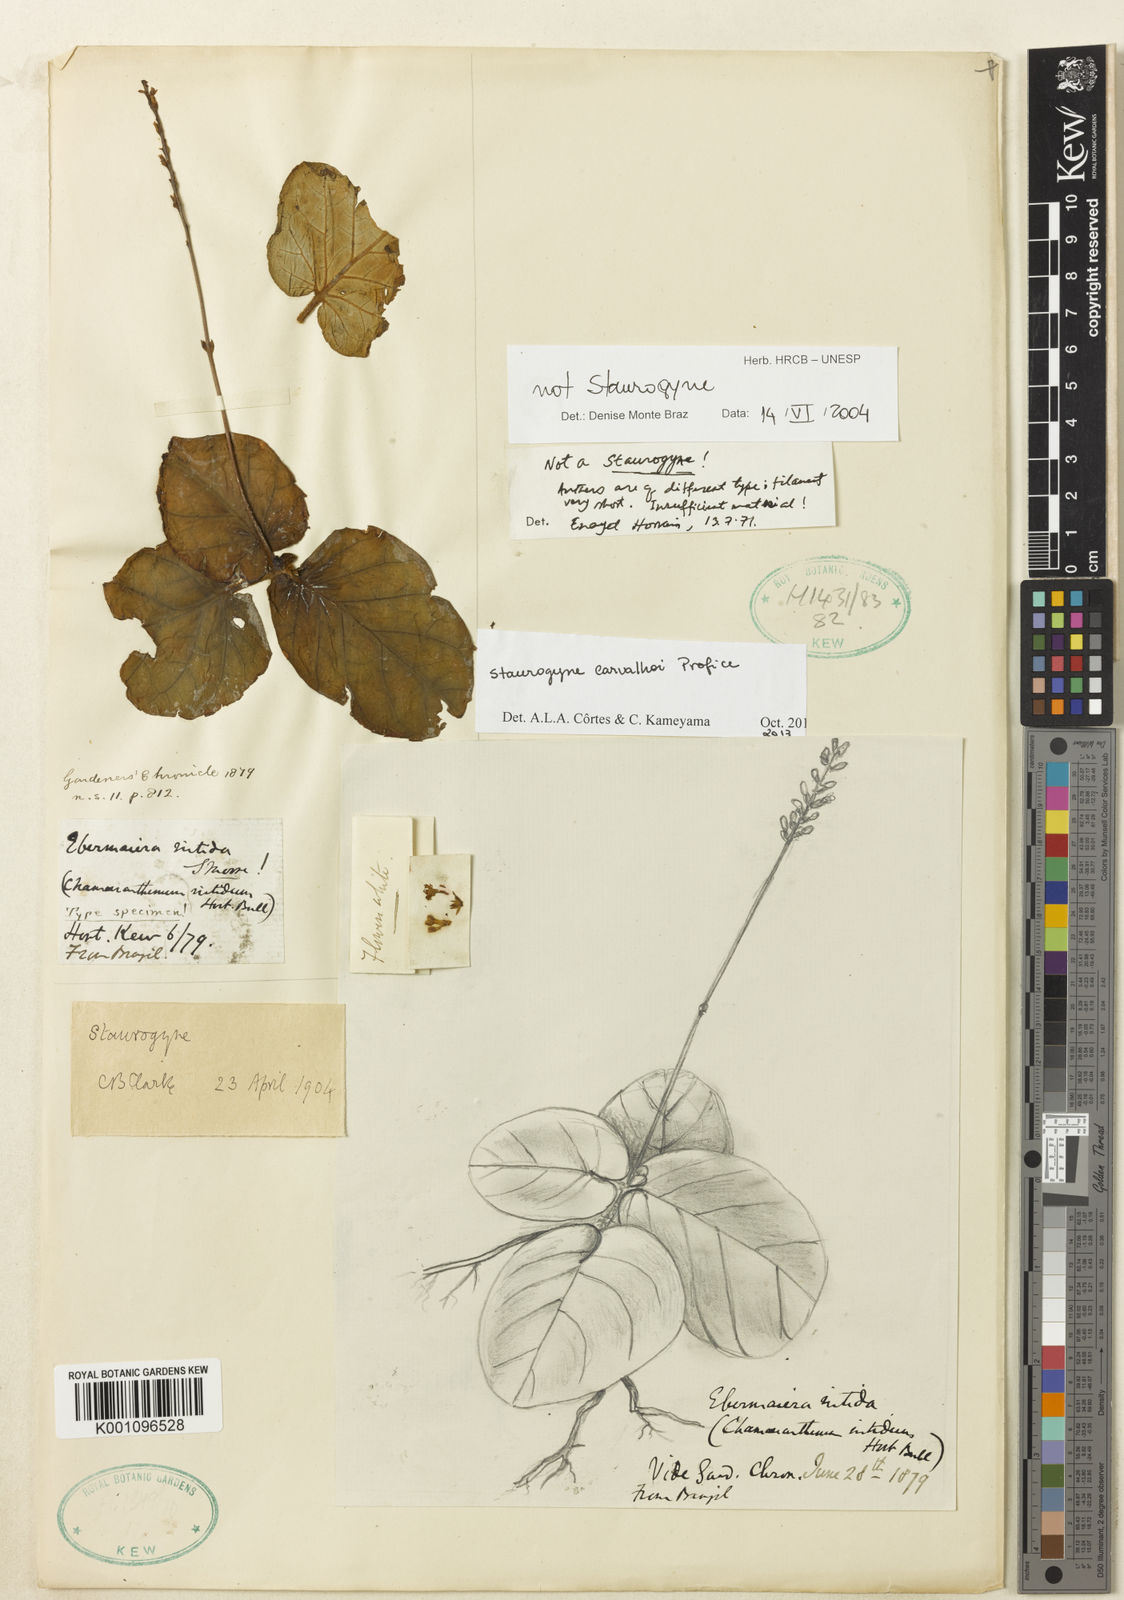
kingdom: Plantae
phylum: Tracheophyta
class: Magnoliopsida
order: Lamiales
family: Acanthaceae
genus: Aymoreana
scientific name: Aymoreana nitida
